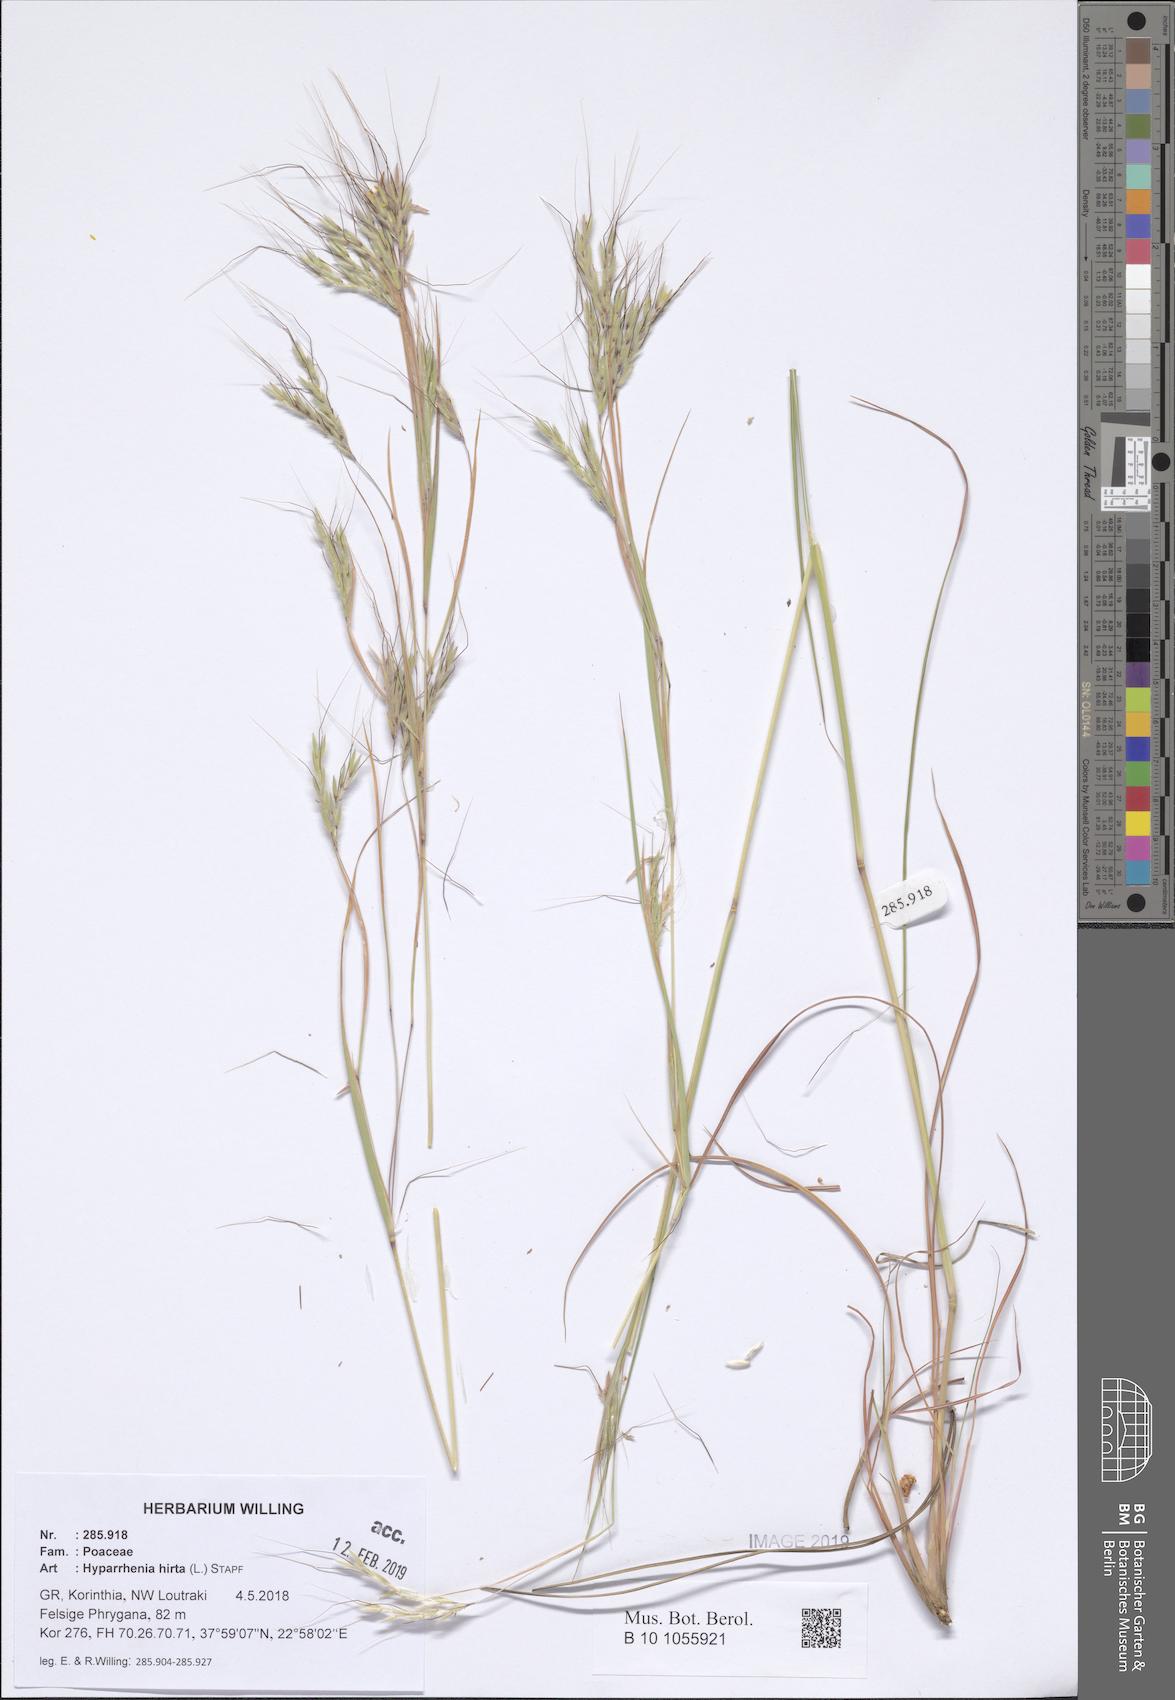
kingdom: Plantae
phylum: Tracheophyta
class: Liliopsida
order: Poales
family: Poaceae
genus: Hyparrhenia
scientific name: Hyparrhenia hirta
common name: Thatching grass
